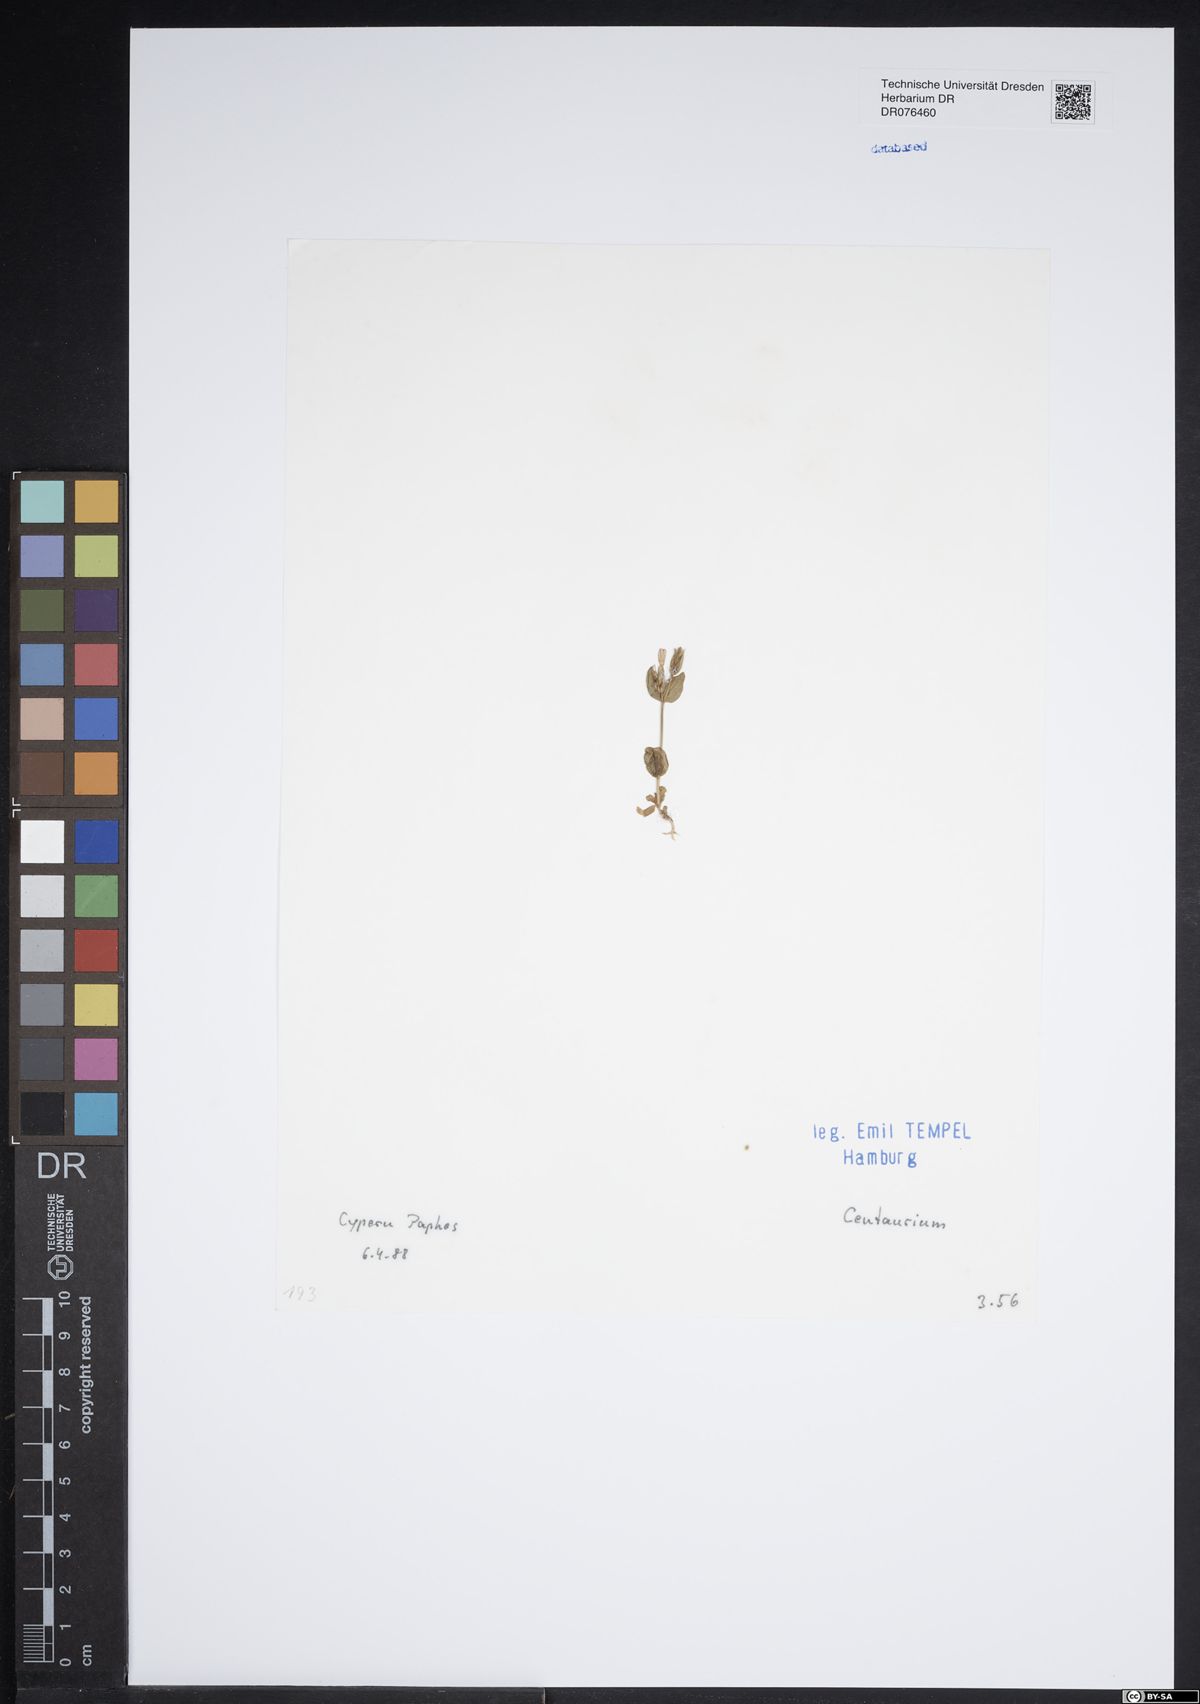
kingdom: Plantae
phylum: Tracheophyta
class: Magnoliopsida
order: Gentianales
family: Gentianaceae
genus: Centaurium
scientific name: Centaurium
